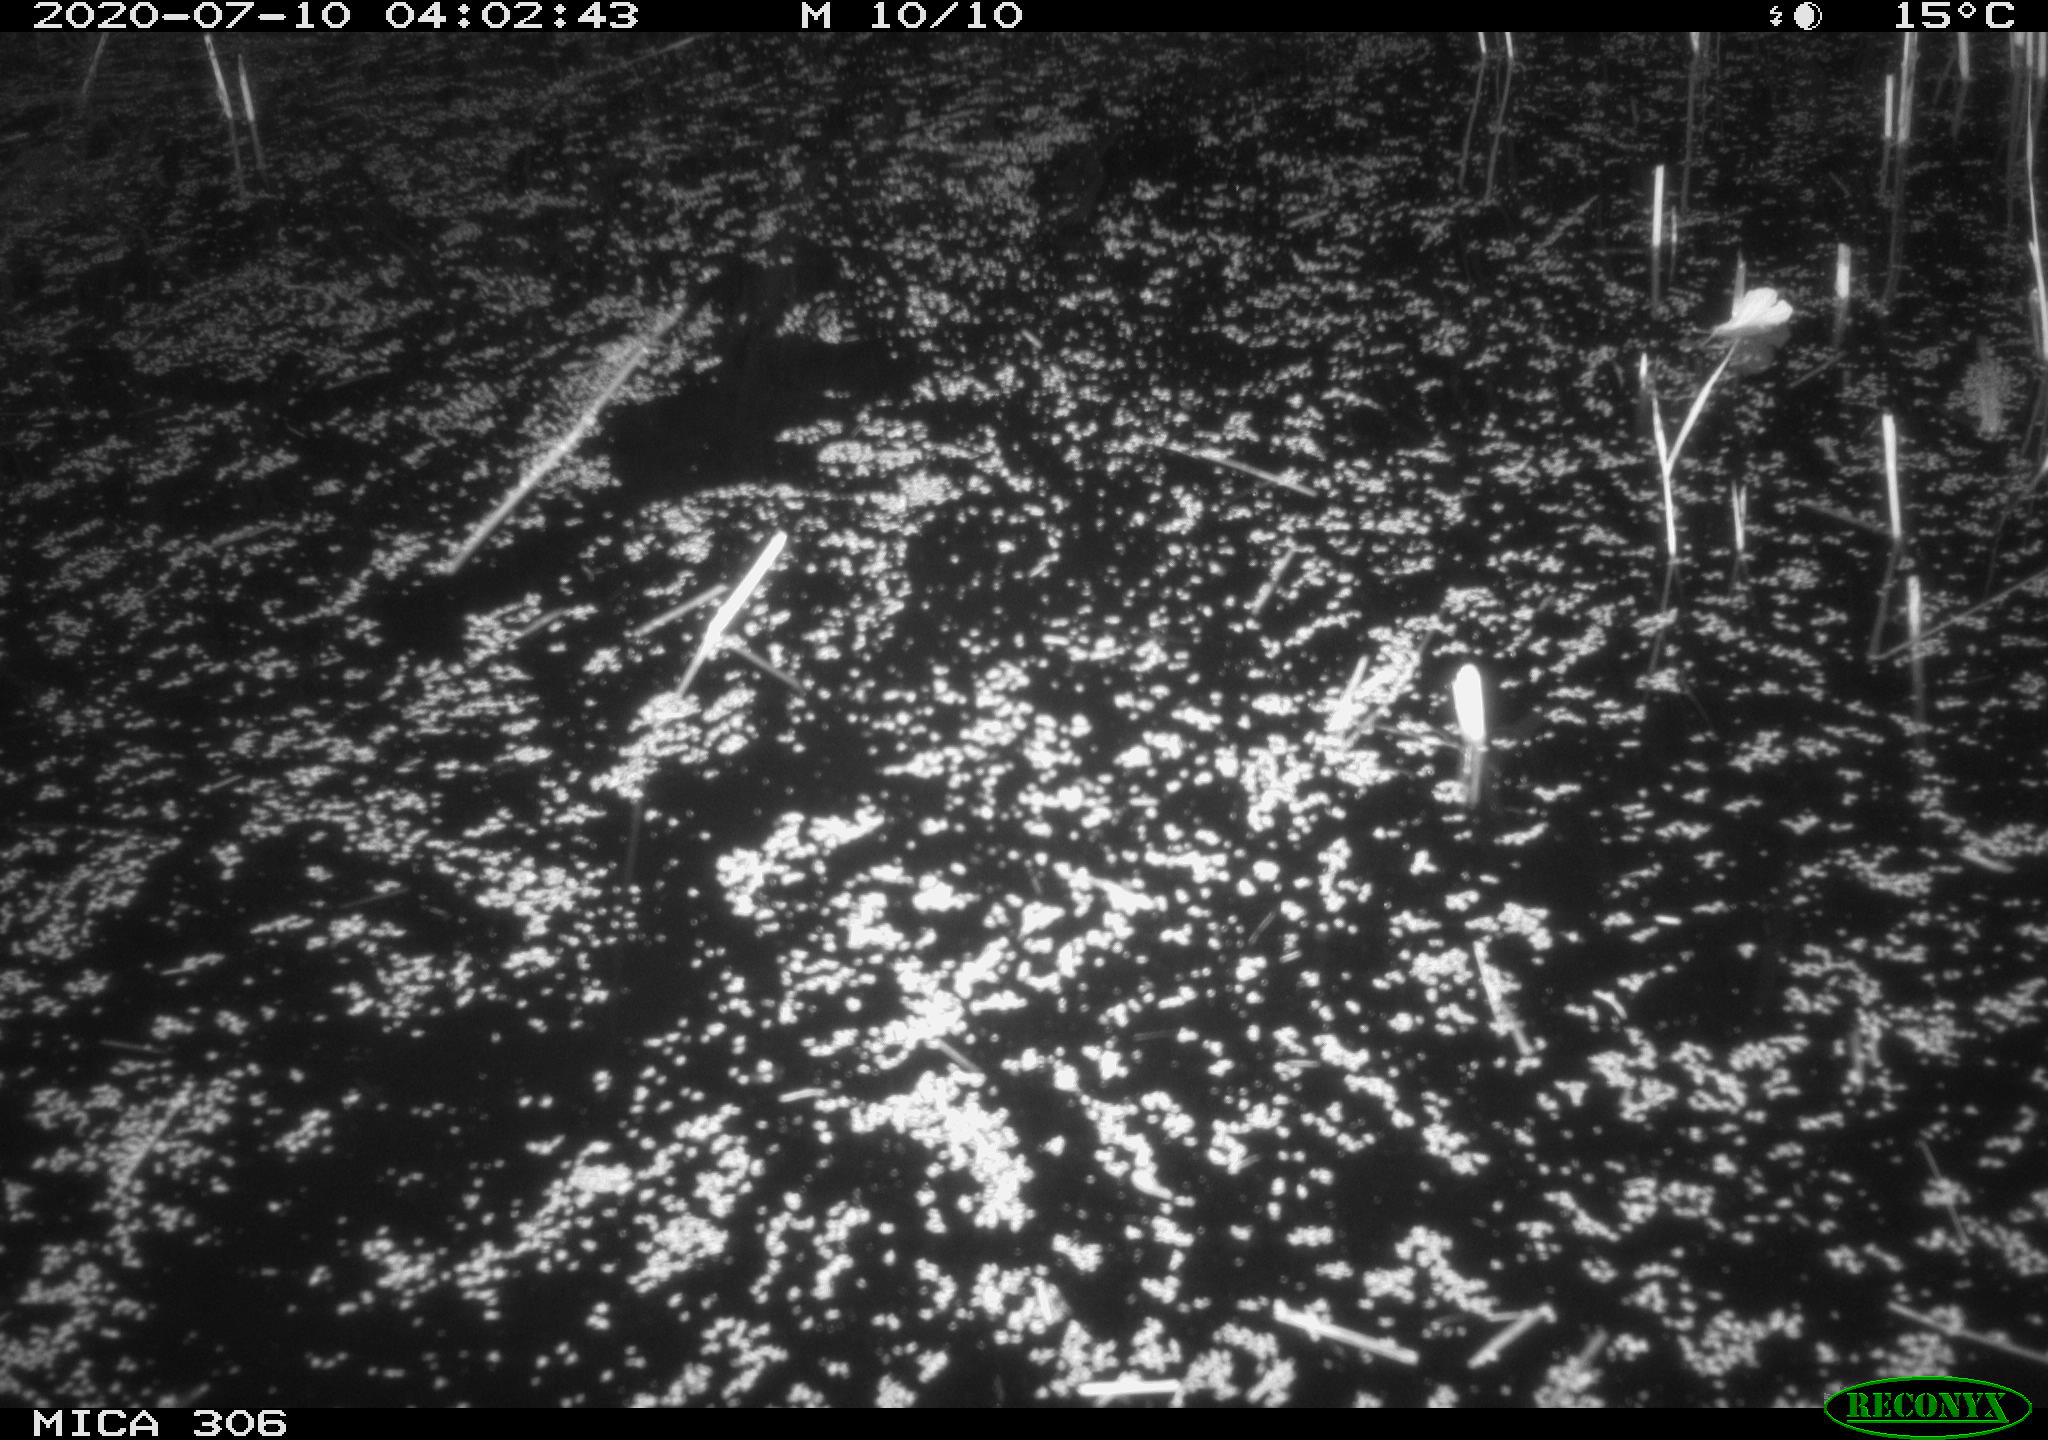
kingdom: Animalia
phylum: Chordata
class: Mammalia
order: Rodentia
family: Cricetidae
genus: Ondatra
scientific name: Ondatra zibethicus
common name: Muskrat
